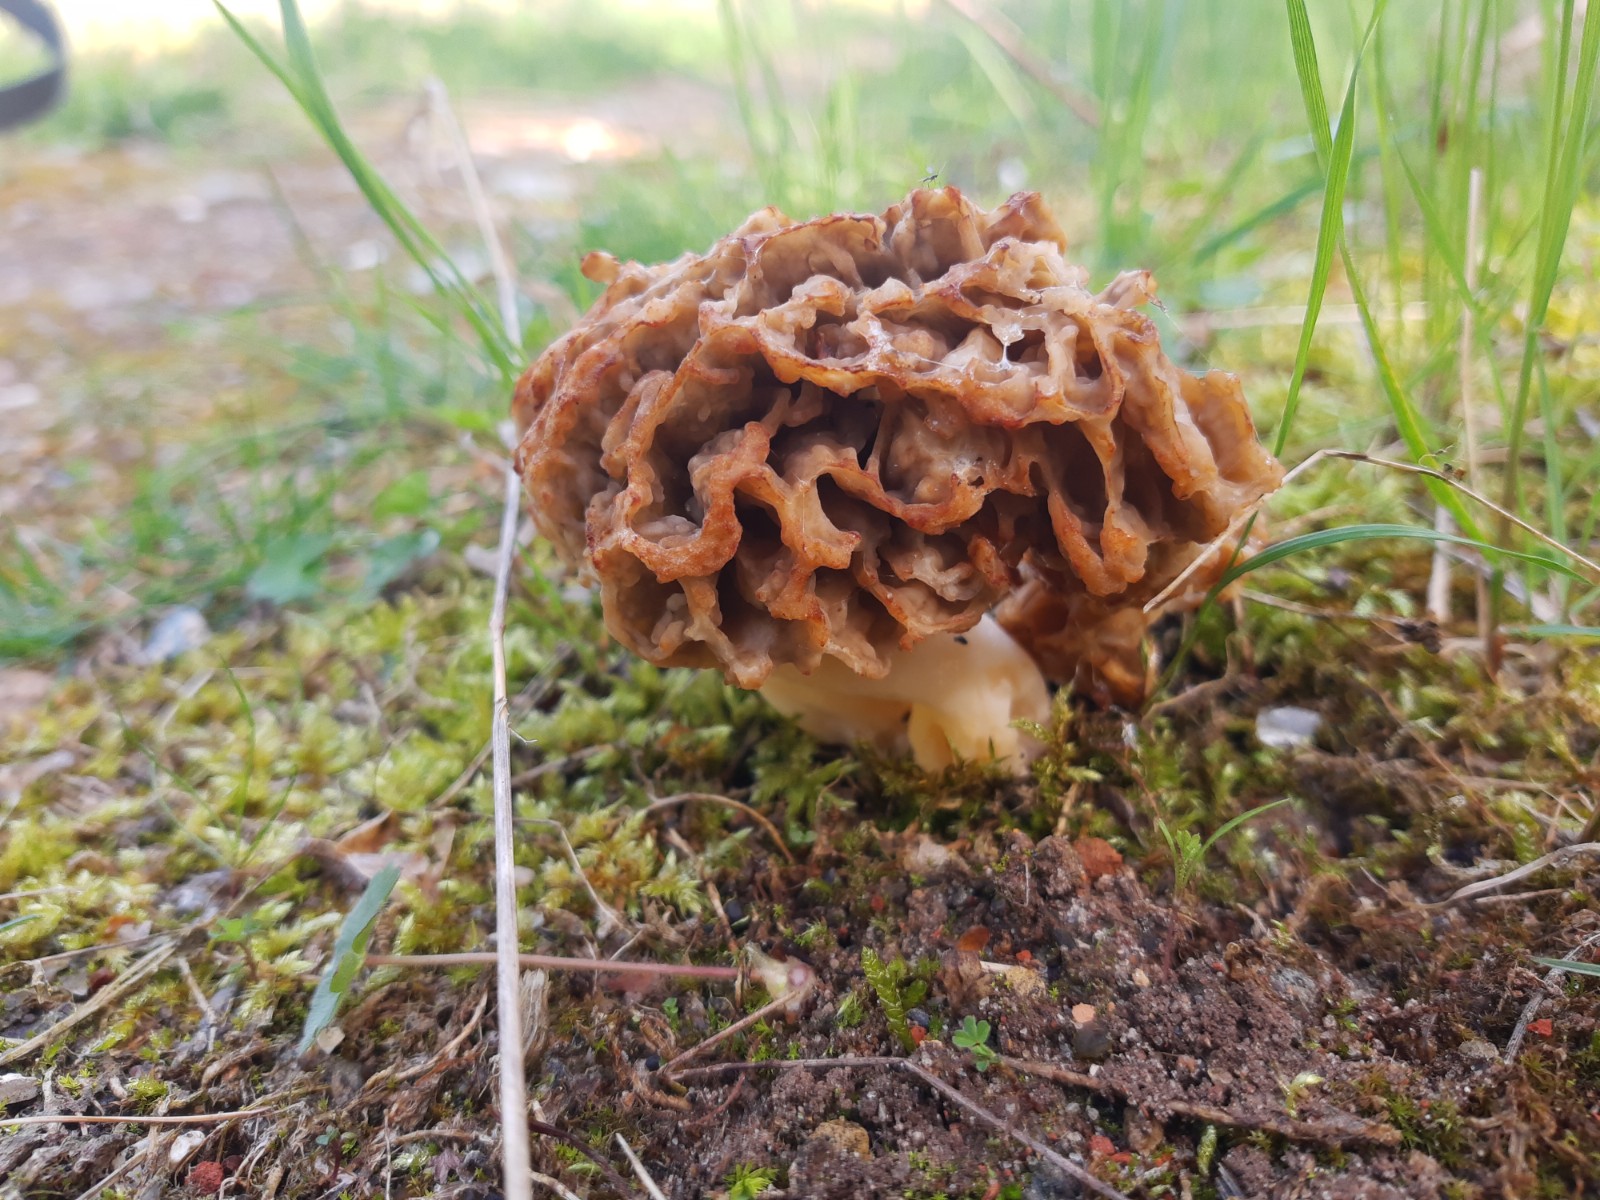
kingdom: Fungi
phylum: Ascomycota
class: Pezizomycetes
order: Pezizales
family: Morchellaceae
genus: Morchella
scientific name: Morchella esculenta
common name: almindelig morkel
